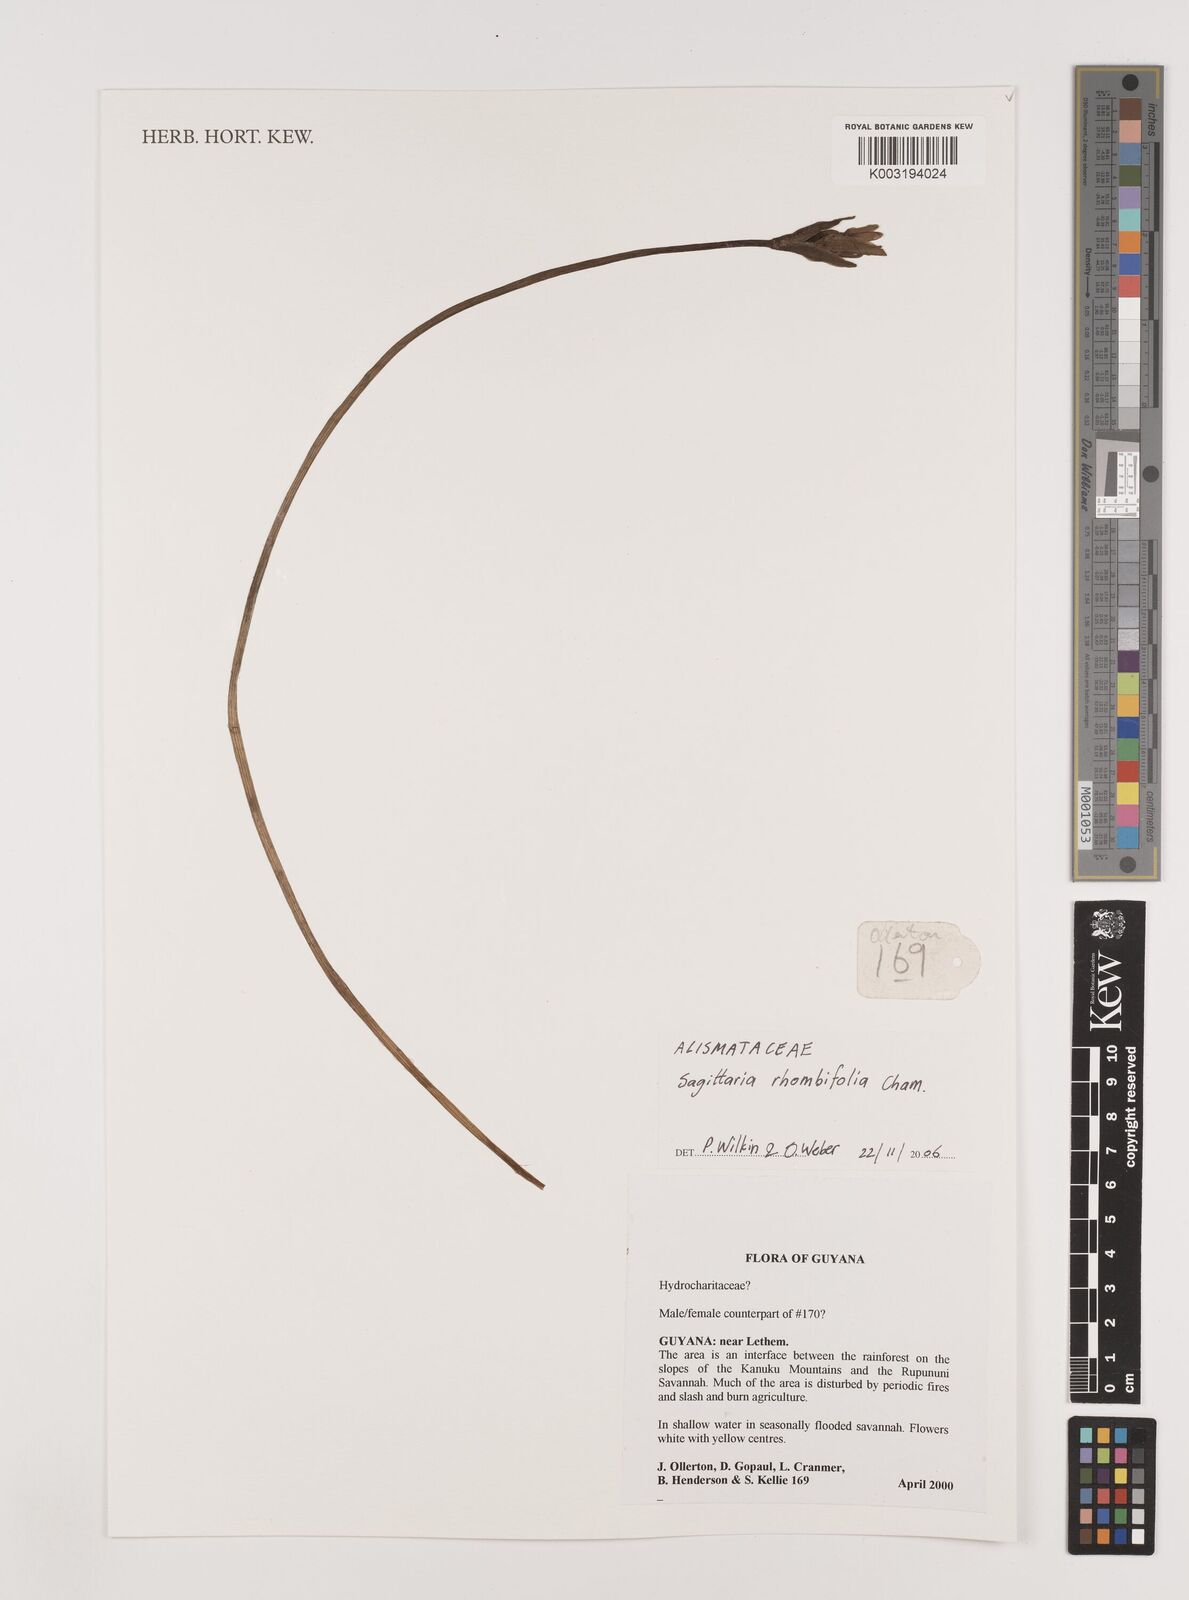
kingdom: Plantae
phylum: Tracheophyta
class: Liliopsida
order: Alismatales
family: Alismataceae
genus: Sagittaria
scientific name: Sagittaria rhombifolia
